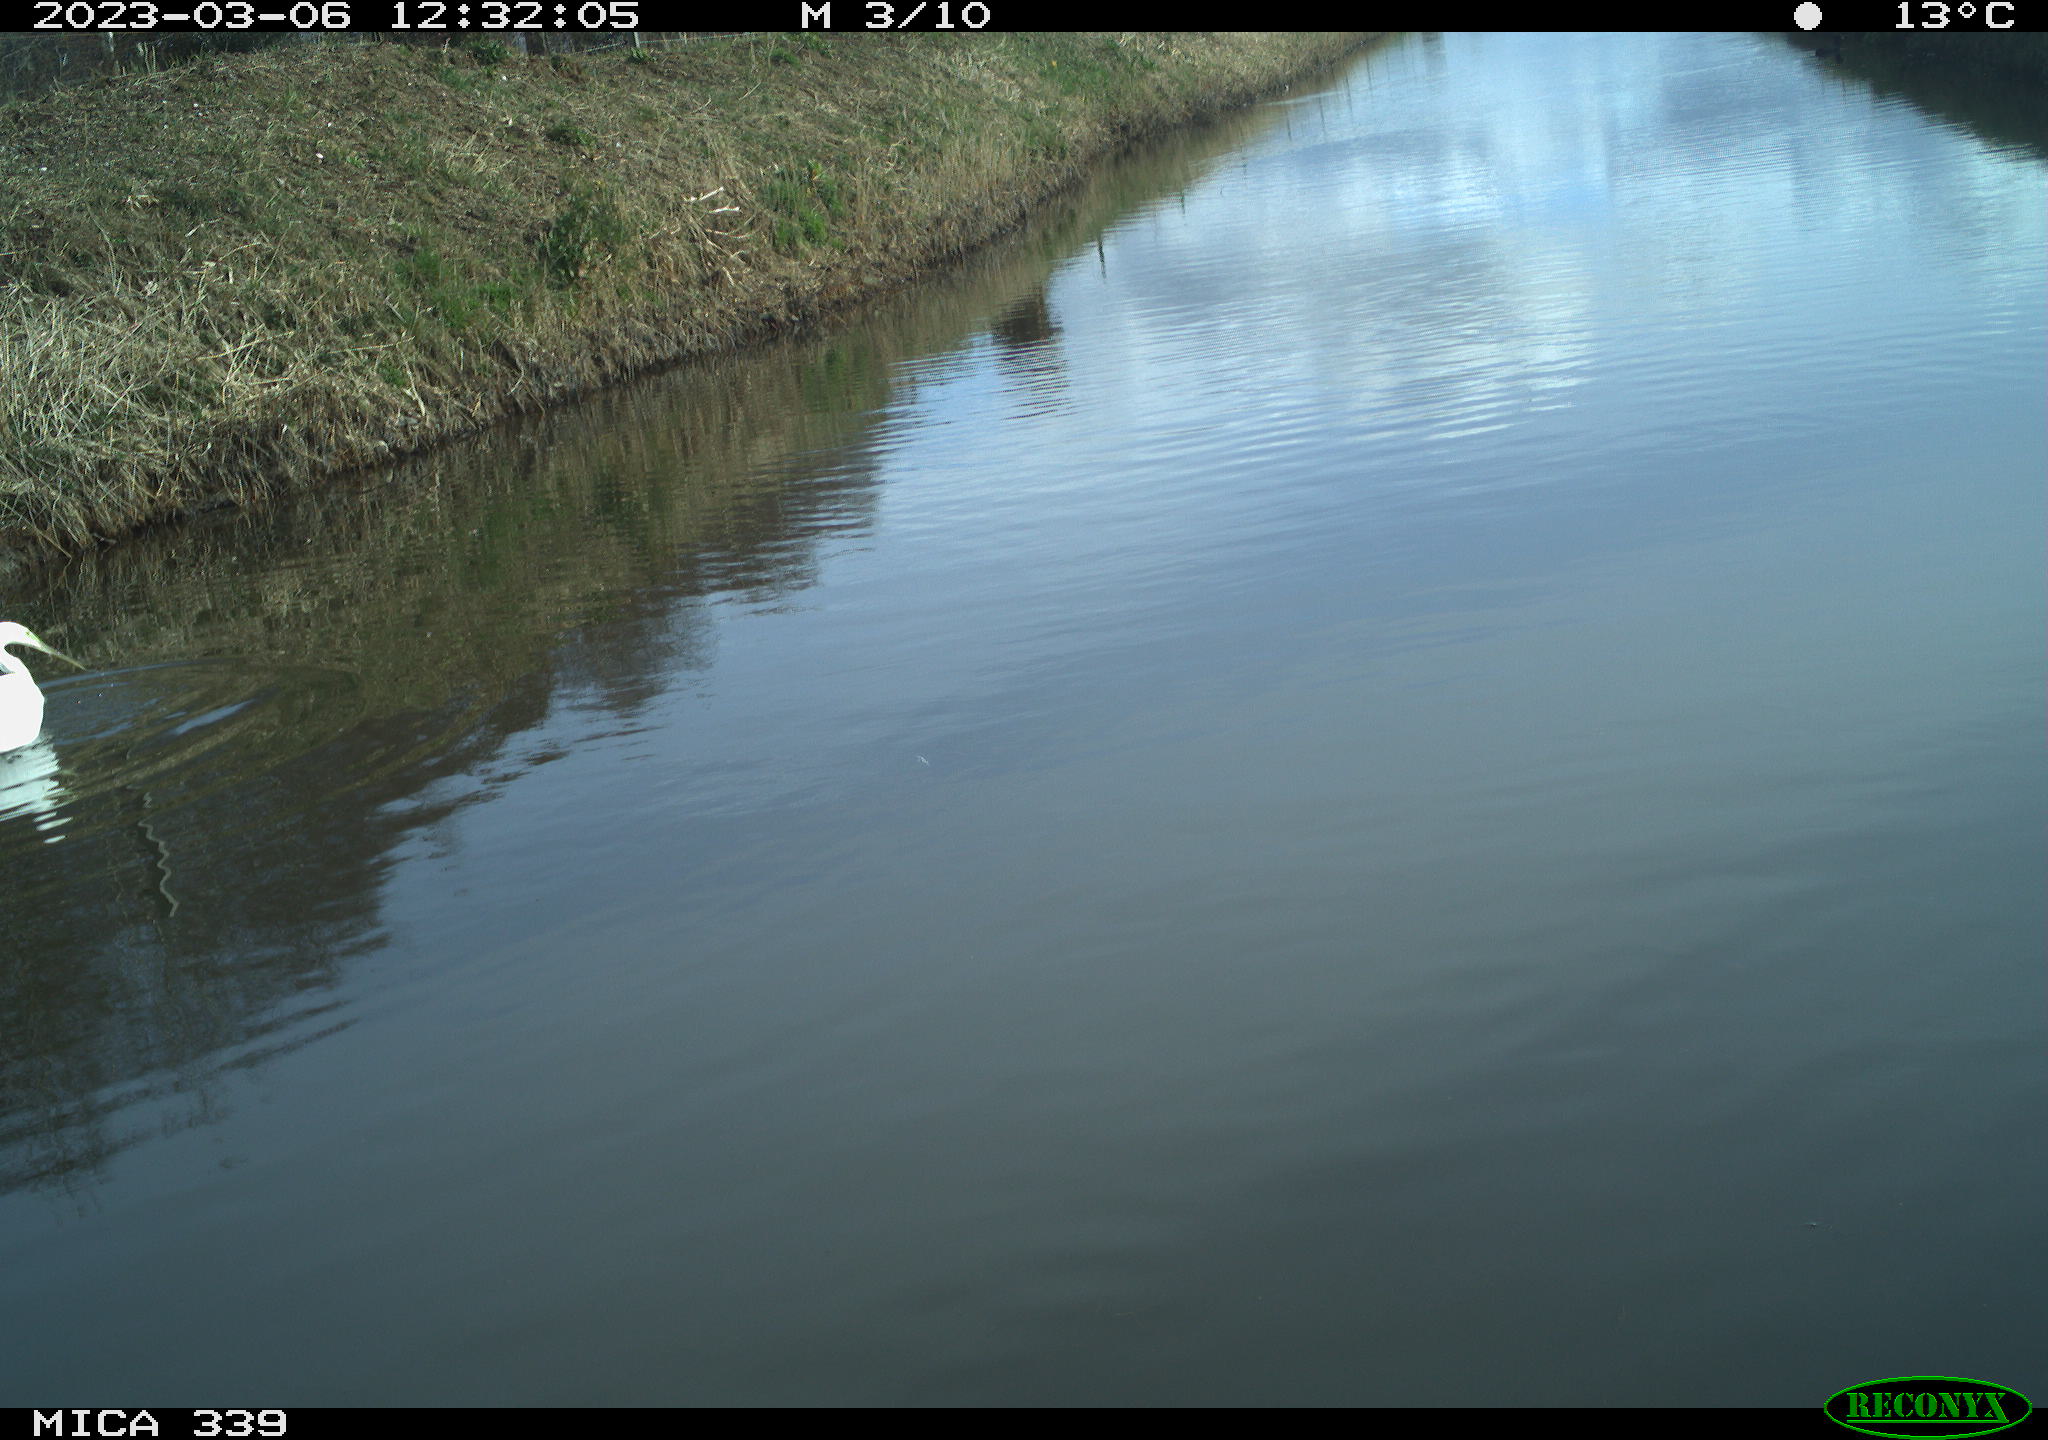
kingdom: Animalia
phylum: Chordata
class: Aves
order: Pelecaniformes
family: Ardeidae
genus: Ardea
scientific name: Ardea alba
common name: Great egret
